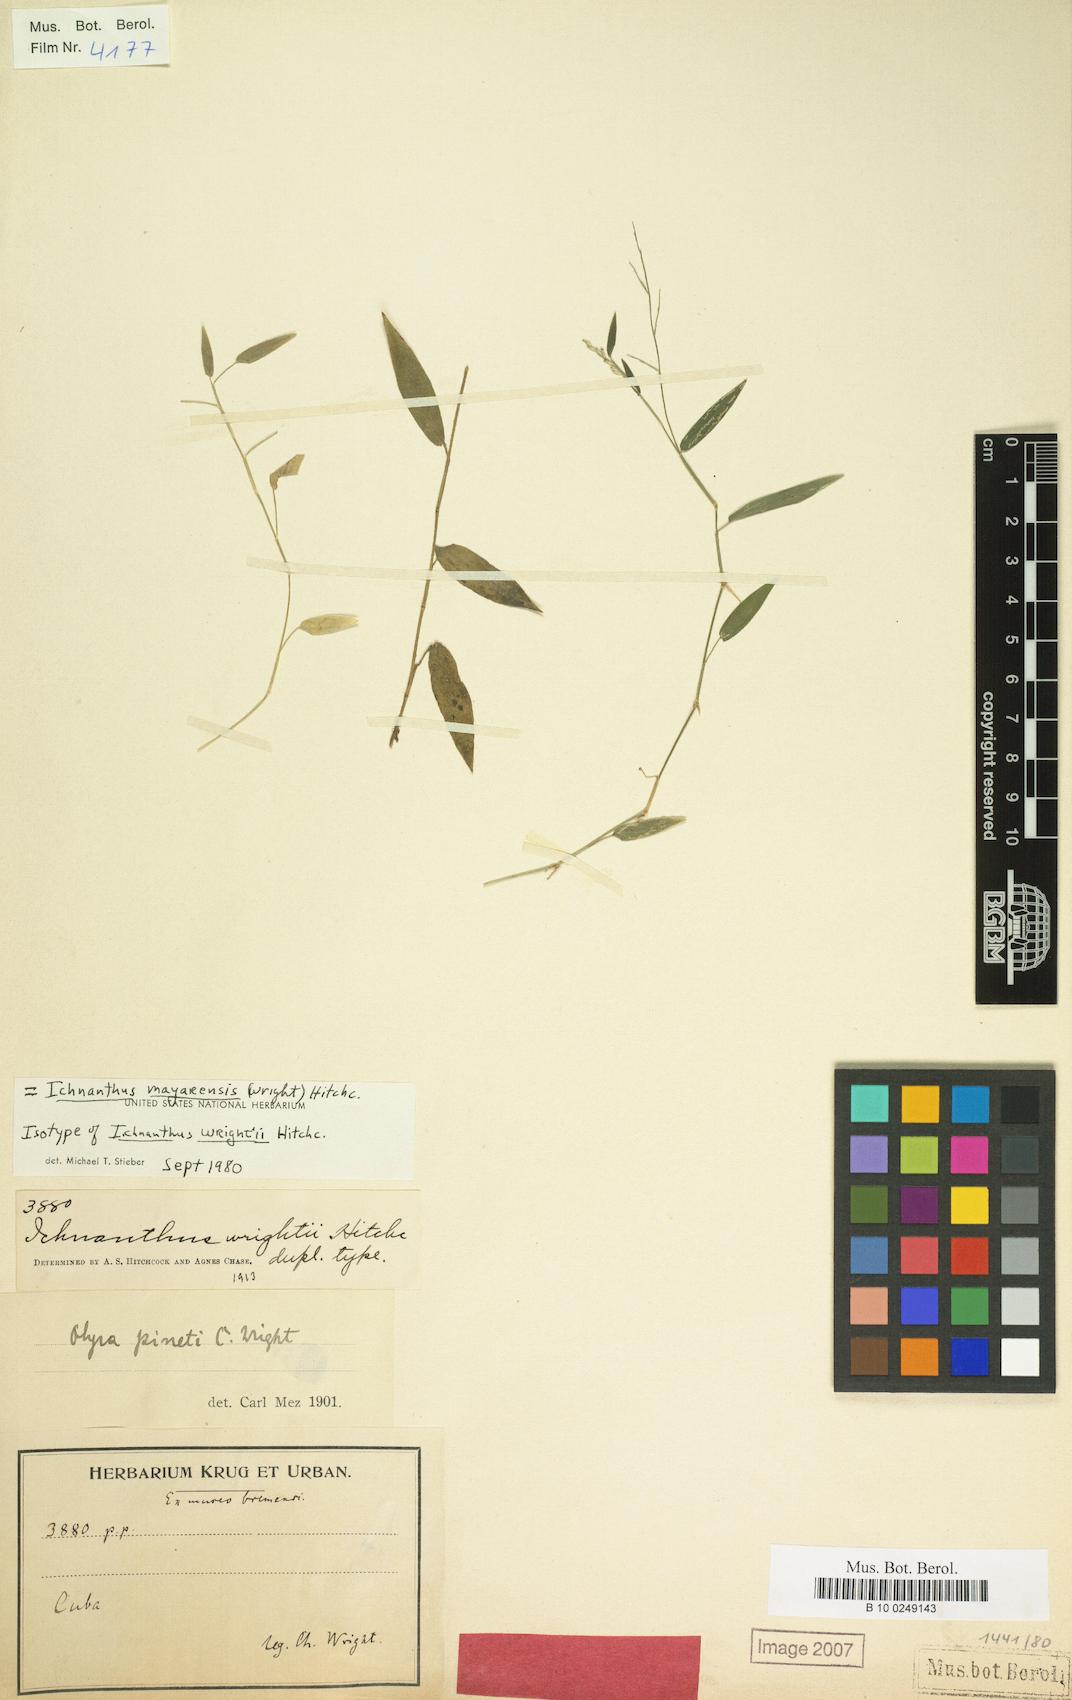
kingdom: Plantae
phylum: Tracheophyta
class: Liliopsida
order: Poales
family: Poaceae
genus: Oedochloa
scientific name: Oedochloa mayarensis
